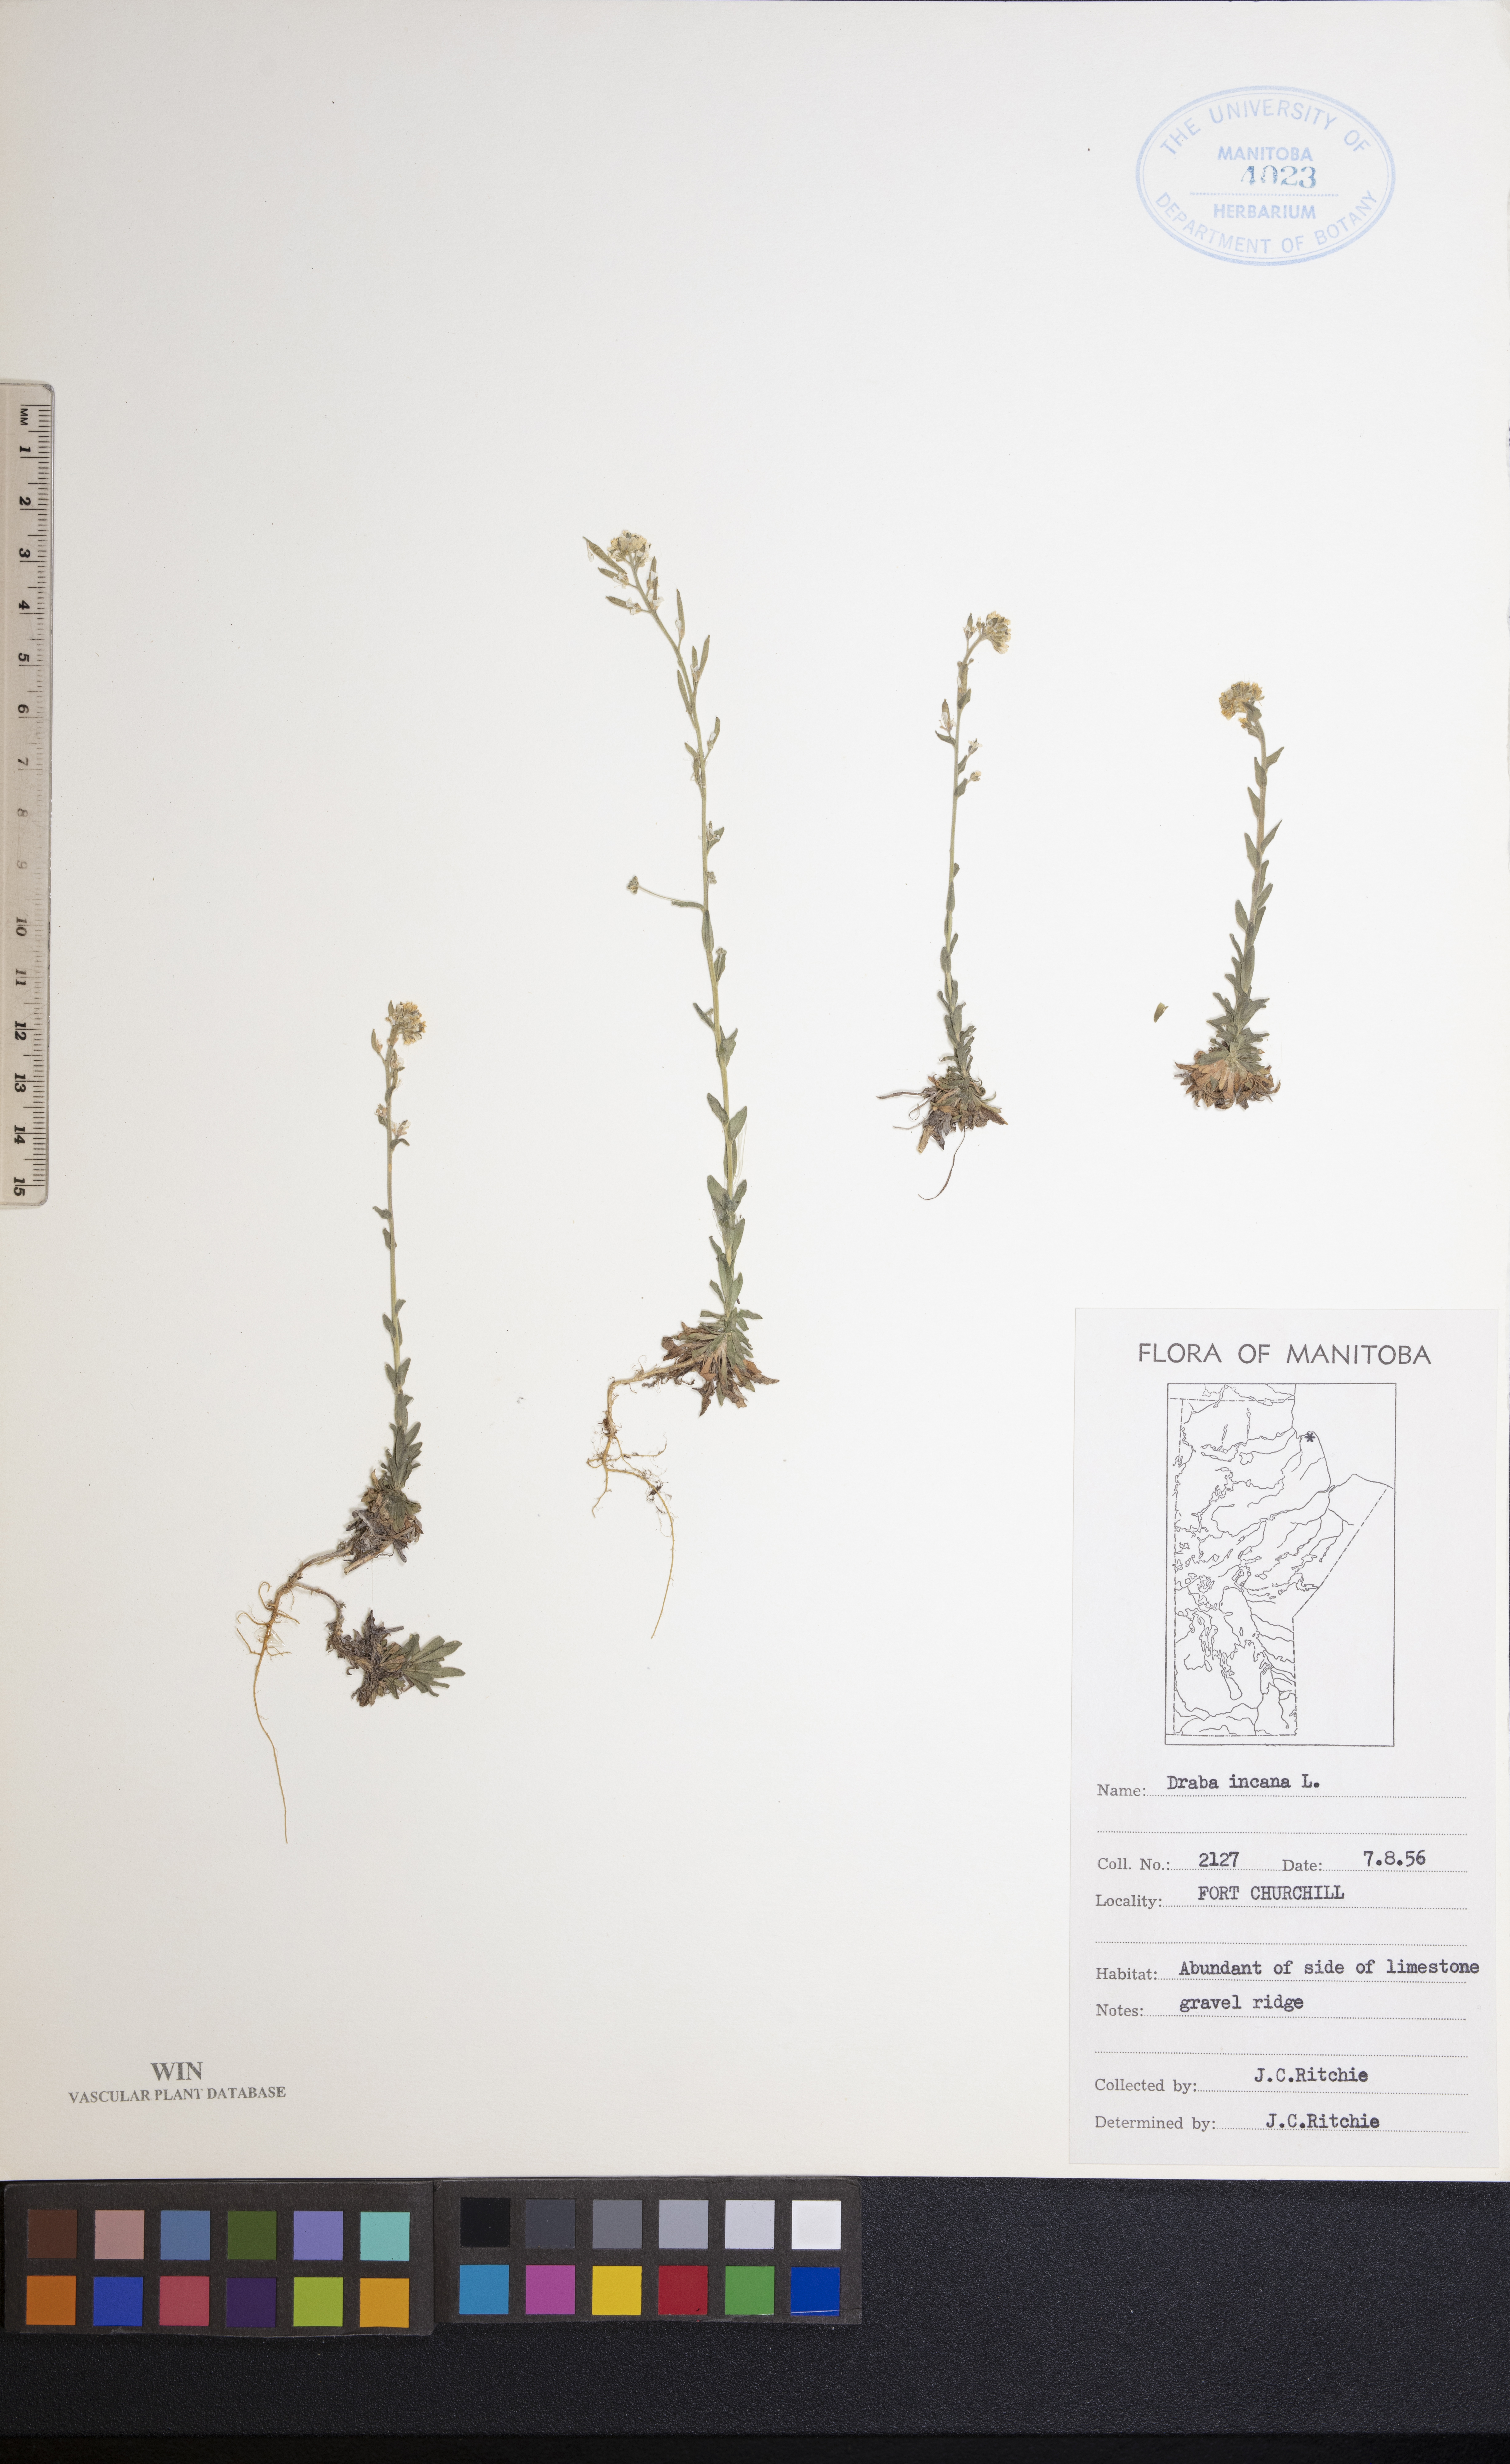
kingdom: Plantae
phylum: Tracheophyta
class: Magnoliopsida
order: Brassicales
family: Brassicaceae
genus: Draba
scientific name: Draba incana
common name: Hoary whitlow-grass
